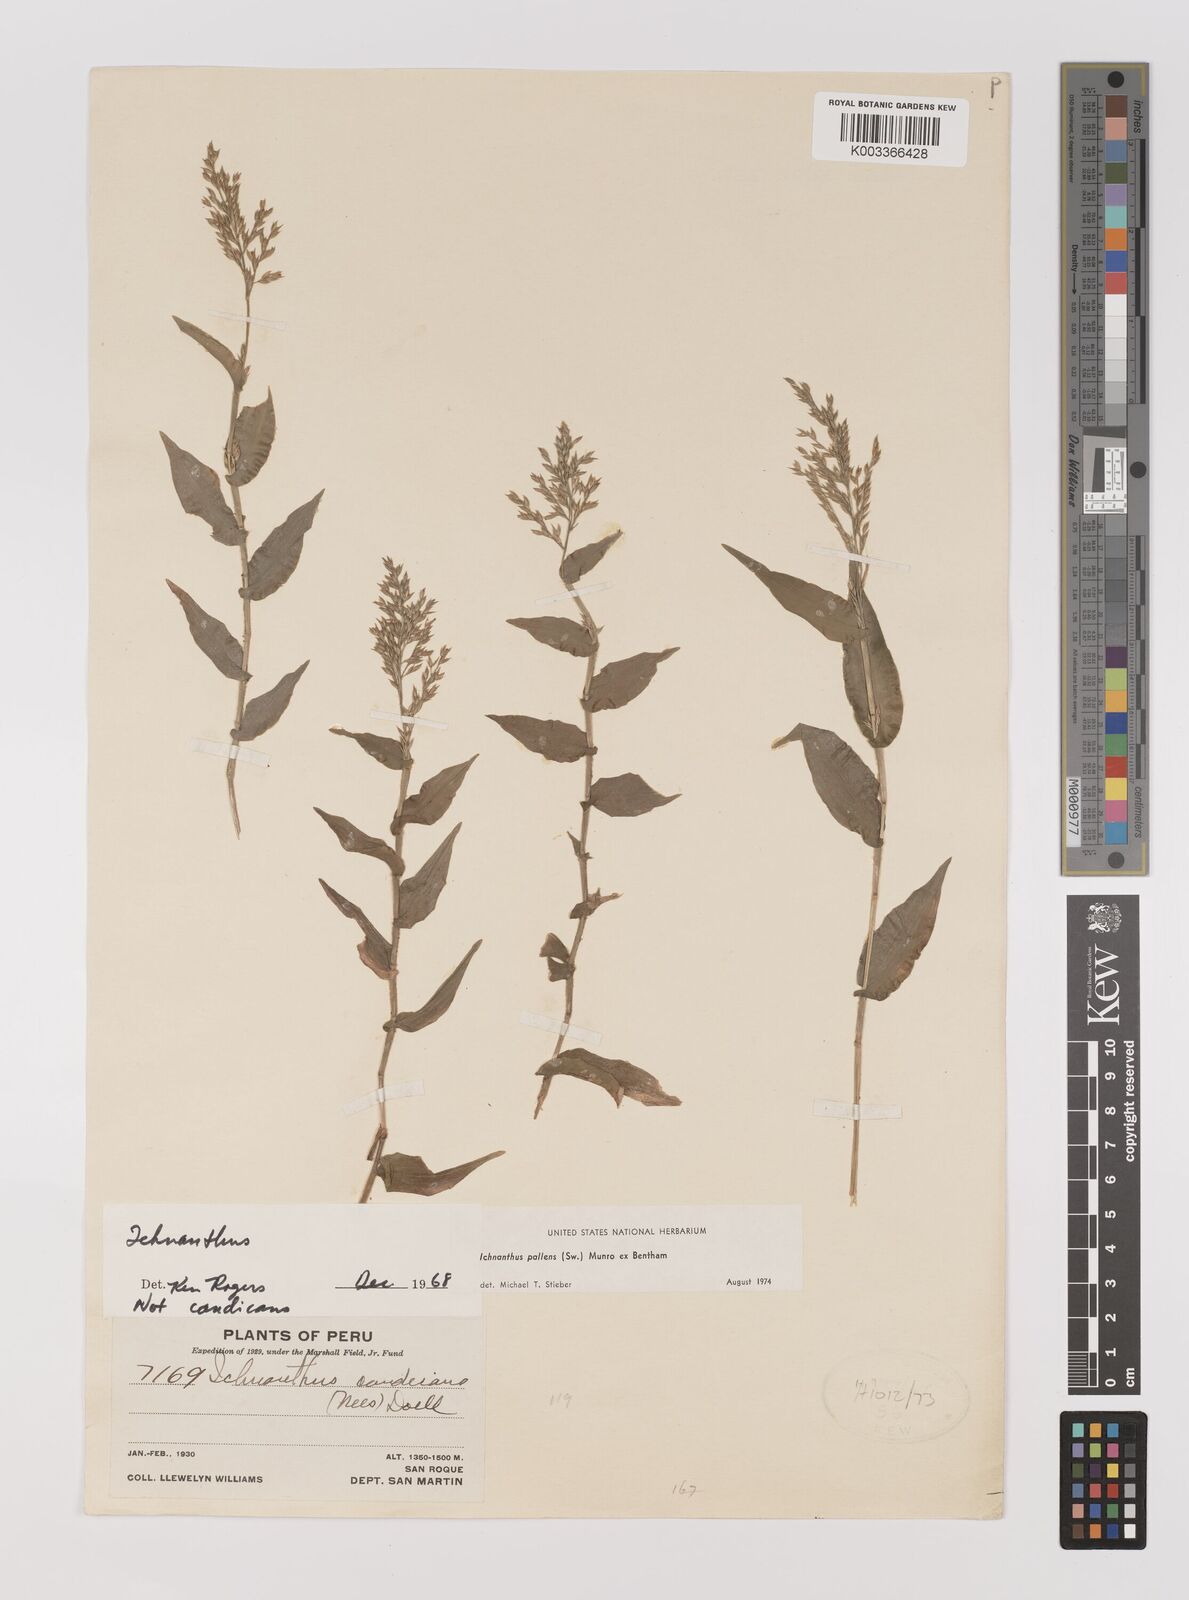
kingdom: Plantae
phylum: Tracheophyta
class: Liliopsida
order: Poales
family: Poaceae
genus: Ichnanthus
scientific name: Ichnanthus pallens
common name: Water grass
